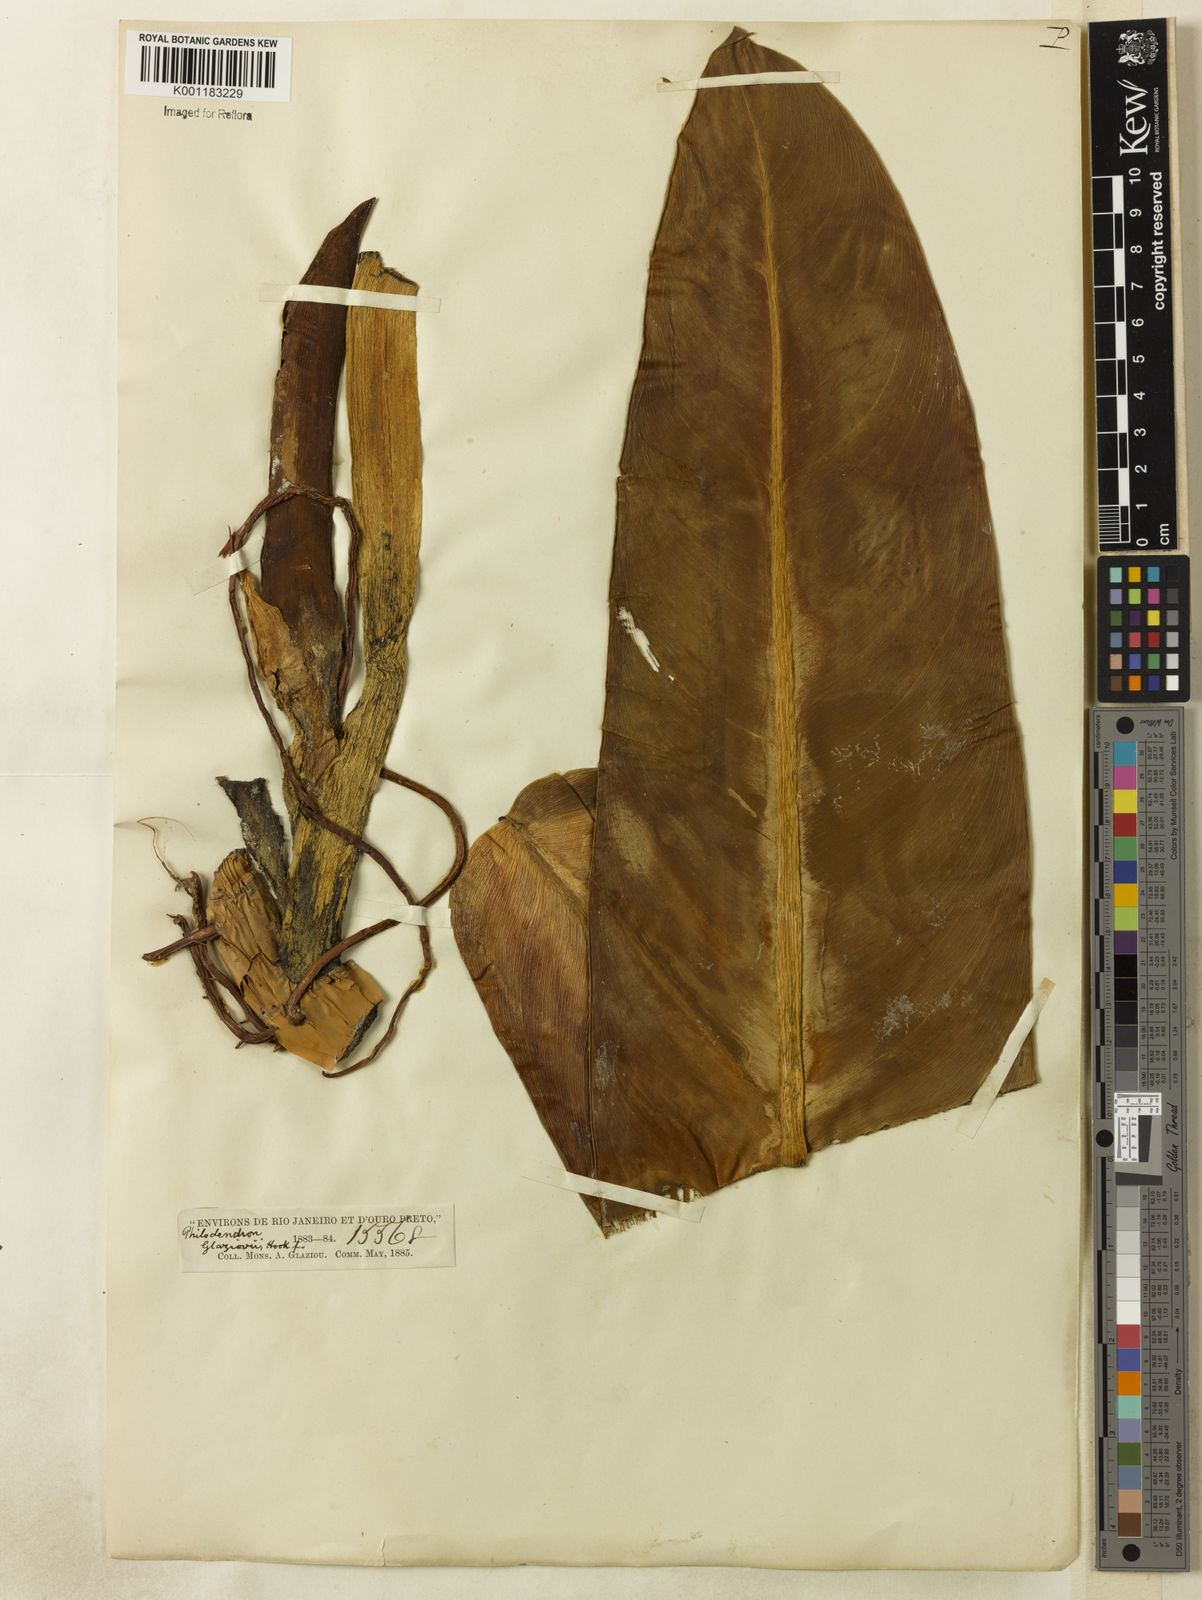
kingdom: Plantae
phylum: Tracheophyta
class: Liliopsida
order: Alismatales
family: Araceae
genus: Philodendron
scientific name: Philodendron glaziovii
